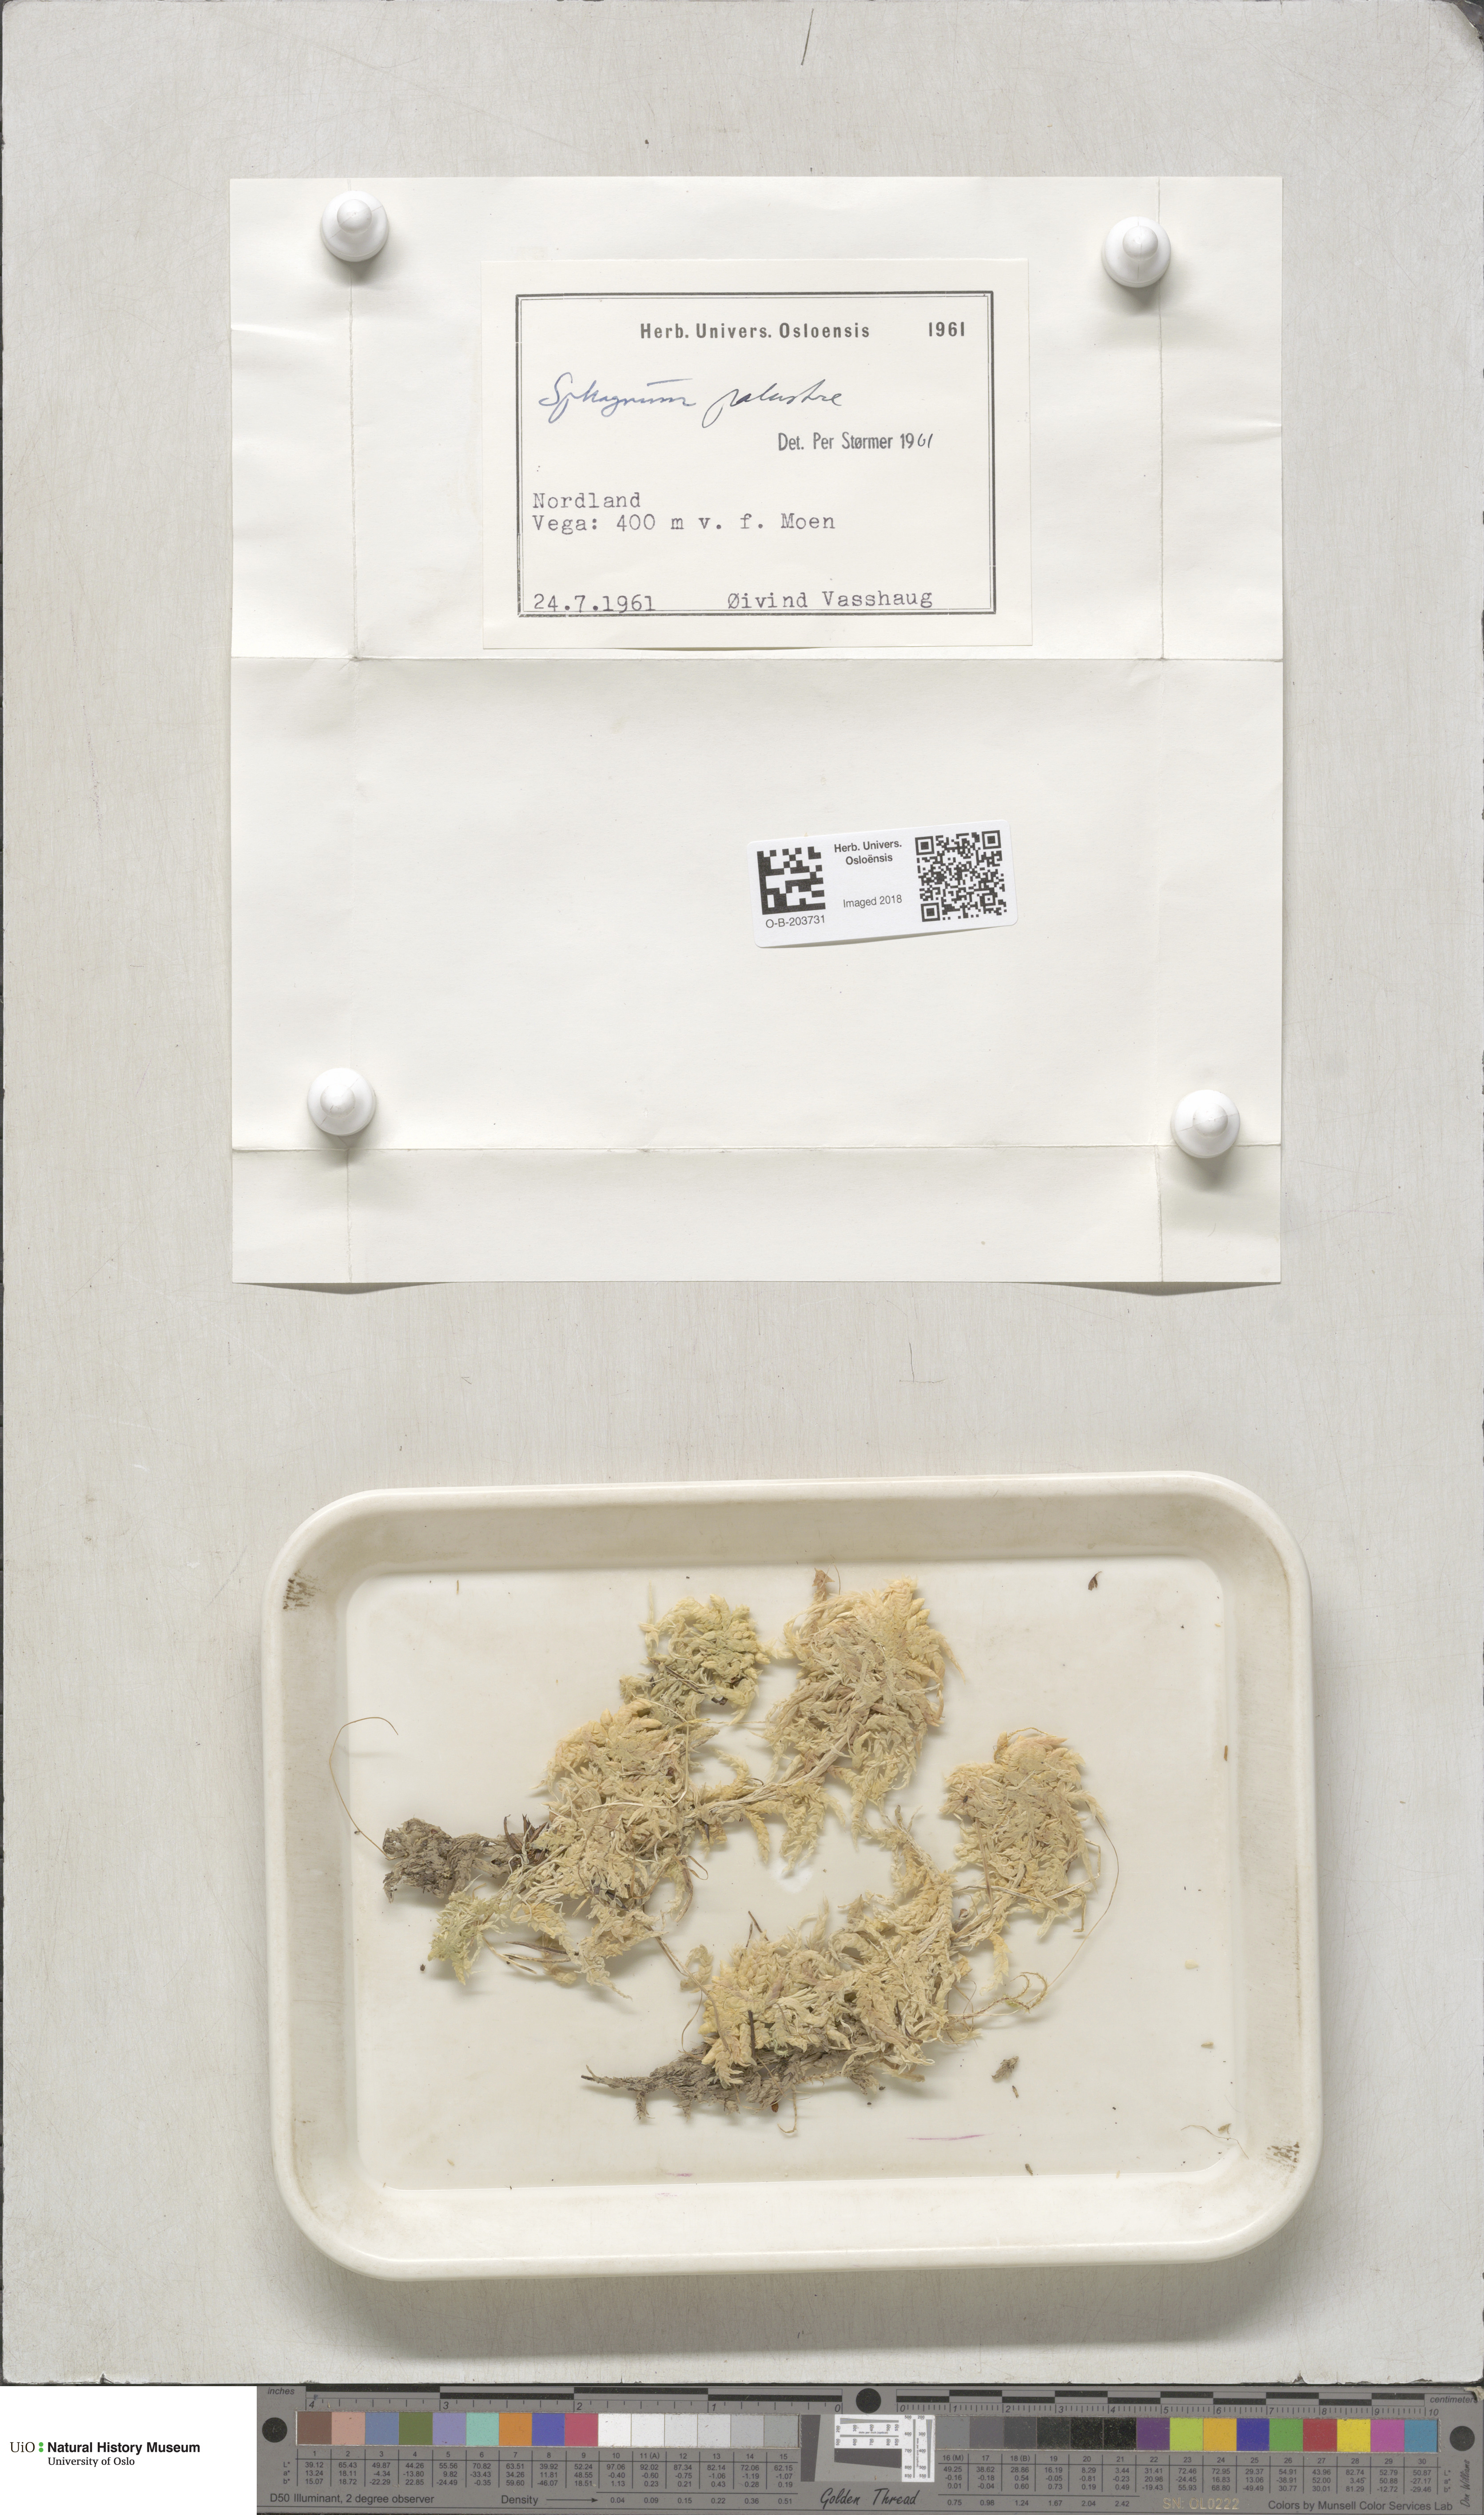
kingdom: Plantae
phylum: Bryophyta
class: Sphagnopsida
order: Sphagnales
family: Sphagnaceae
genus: Sphagnum
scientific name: Sphagnum palustre
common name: Blunt-leaved bog-moss
